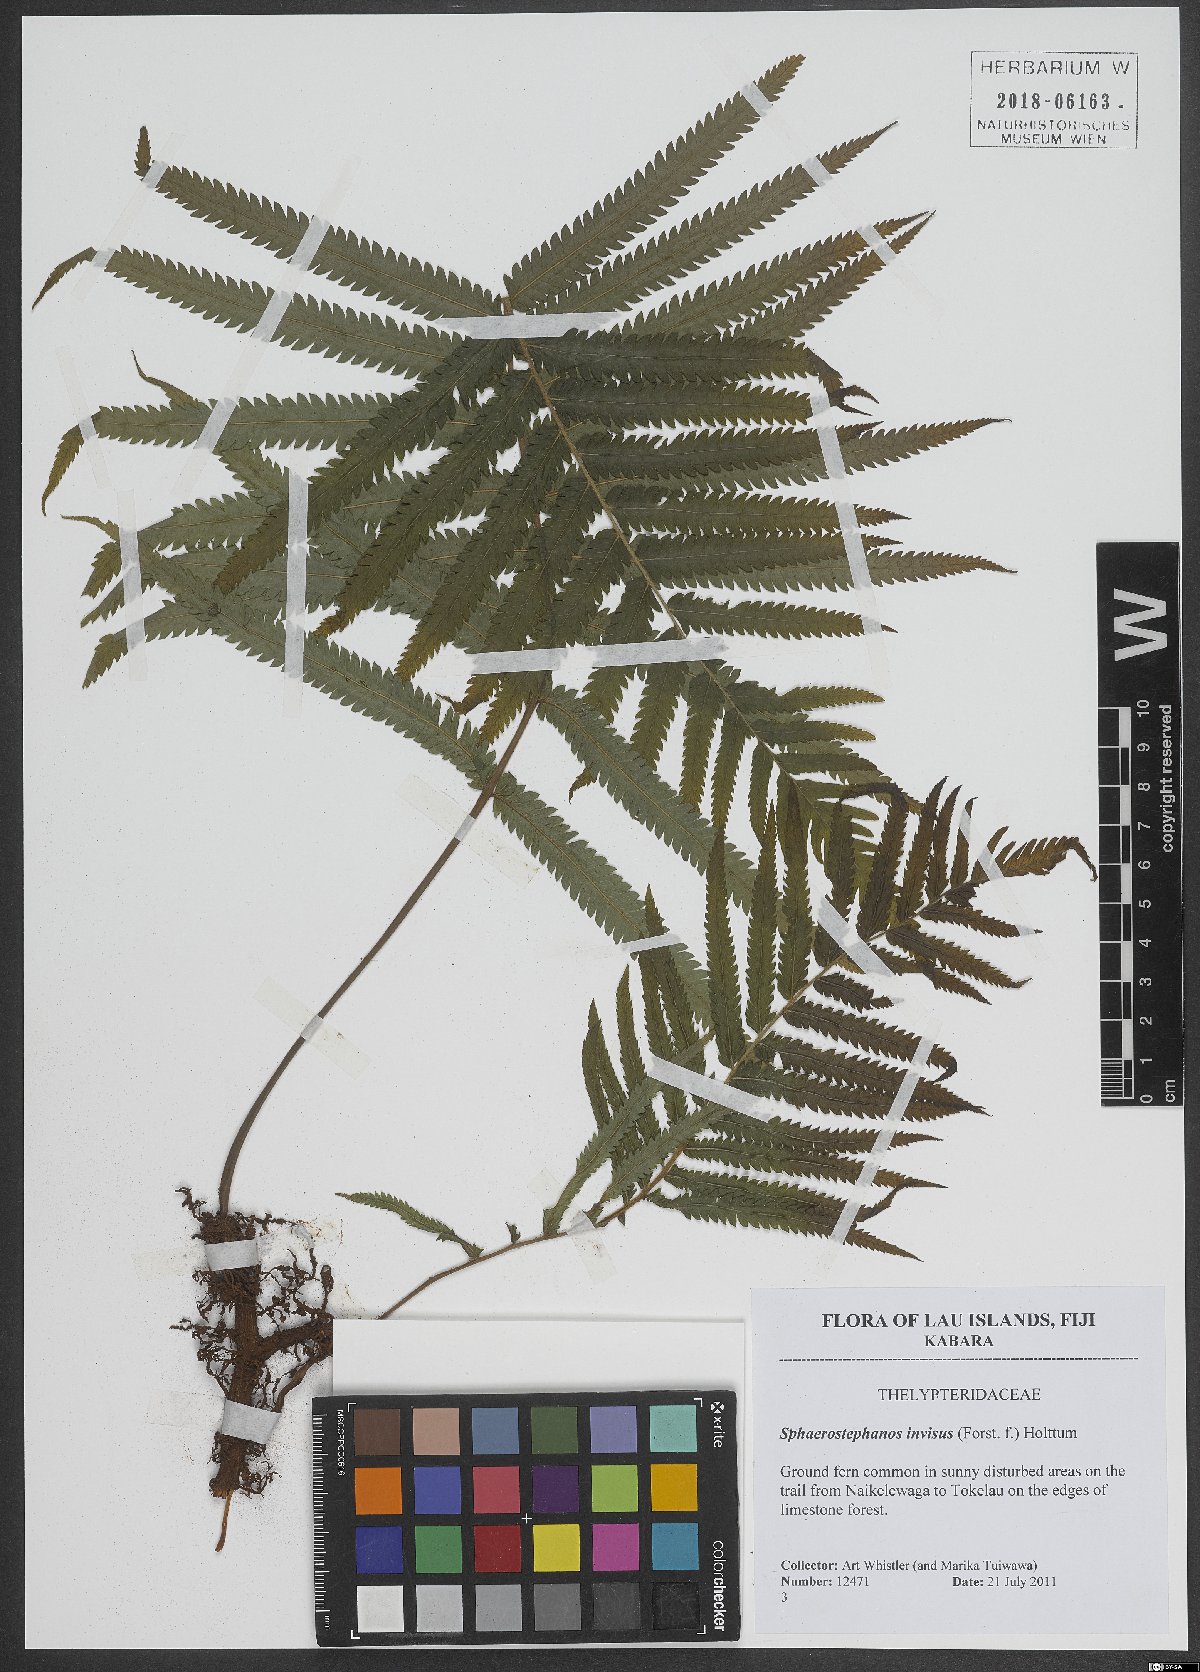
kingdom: Plantae
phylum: Tracheophyta
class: Polypodiopsida
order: Polypodiales
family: Thelypteridaceae
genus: Strophocaulon
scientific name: Strophocaulon invisum
